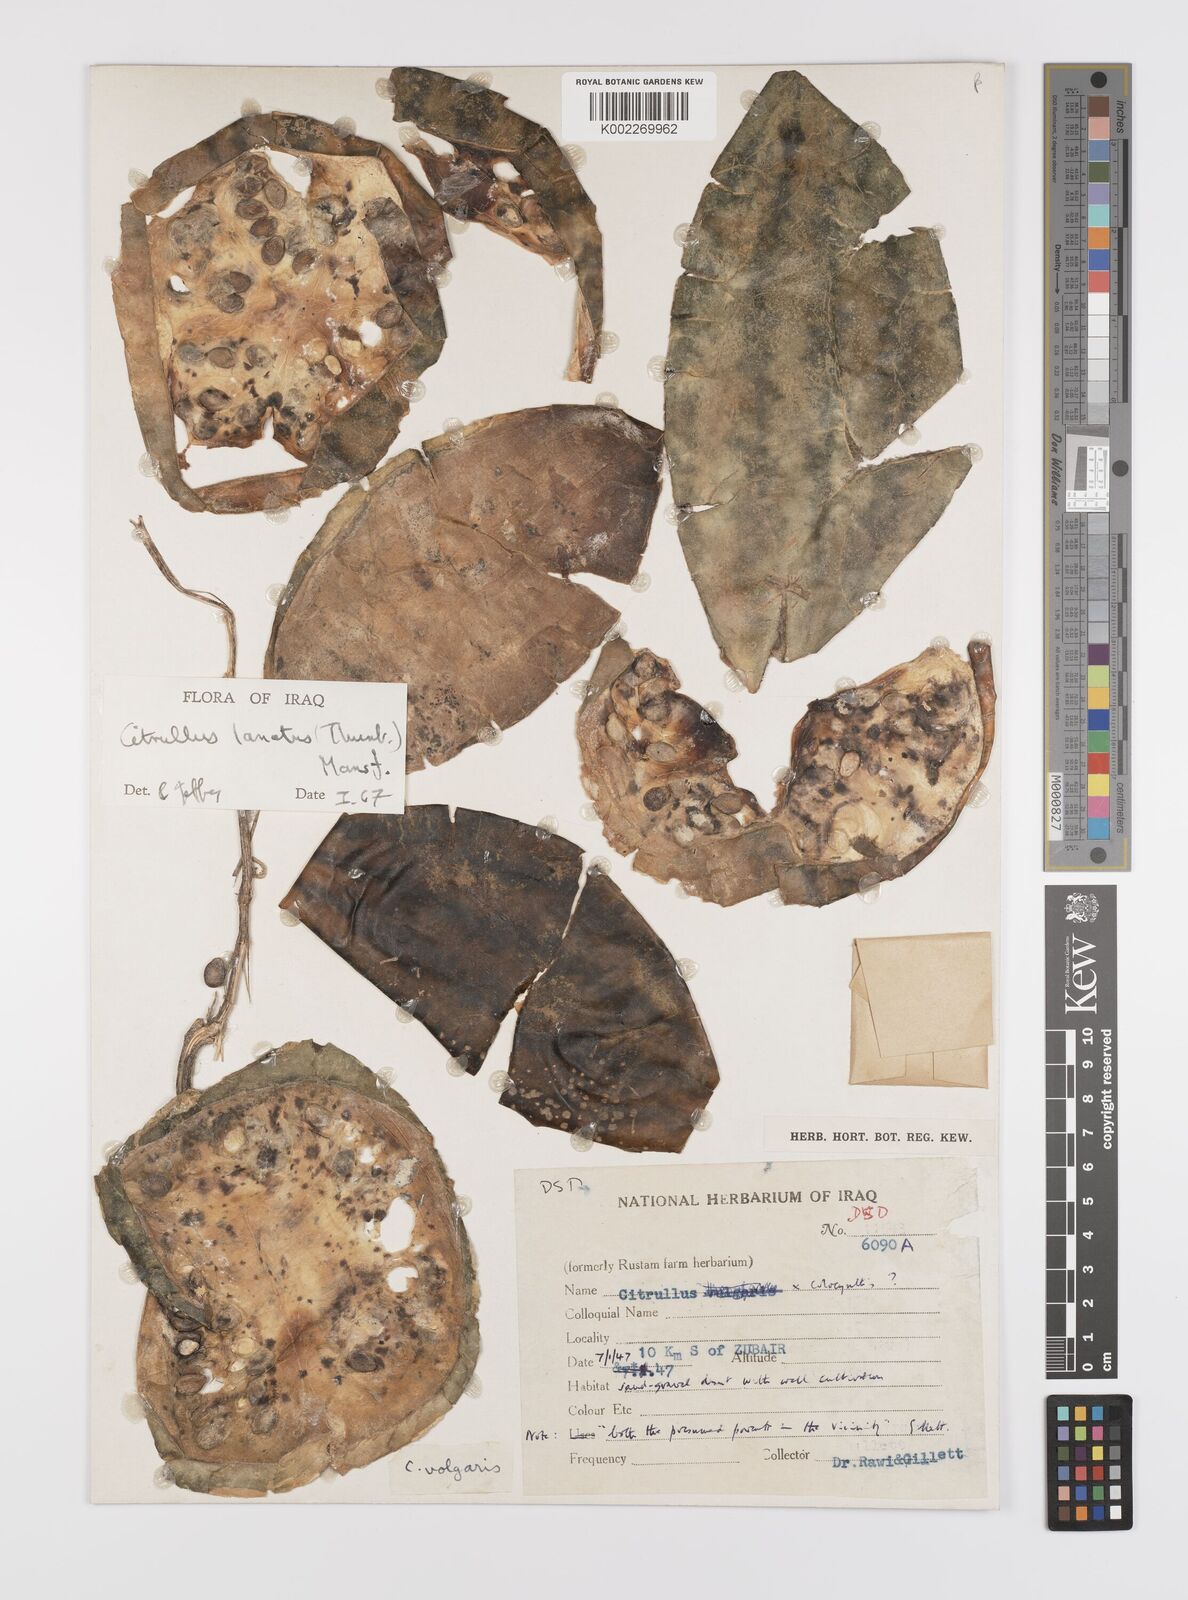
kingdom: Plantae
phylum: Tracheophyta
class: Magnoliopsida
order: Cucurbitales
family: Cucurbitaceae
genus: Citrullus
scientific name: Citrullus lanatus
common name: Watermelon
